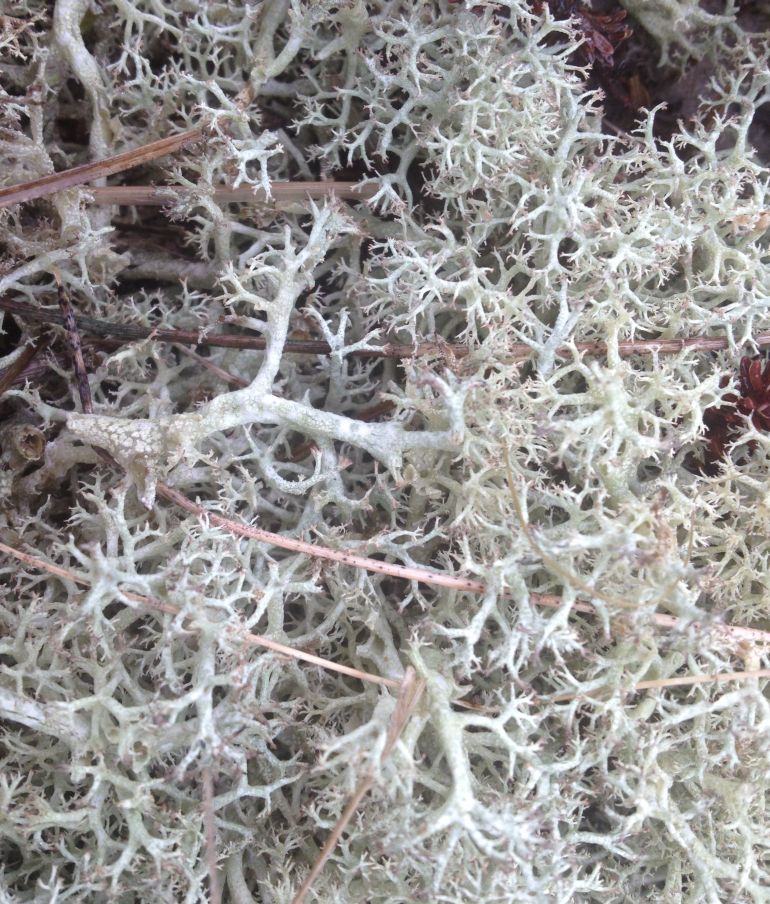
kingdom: Fungi
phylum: Ascomycota
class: Lecanoromycetes
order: Lecanorales
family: Cladoniaceae
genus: Cladonia
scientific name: Cladonia portentosa
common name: hede-rensdyrlav
